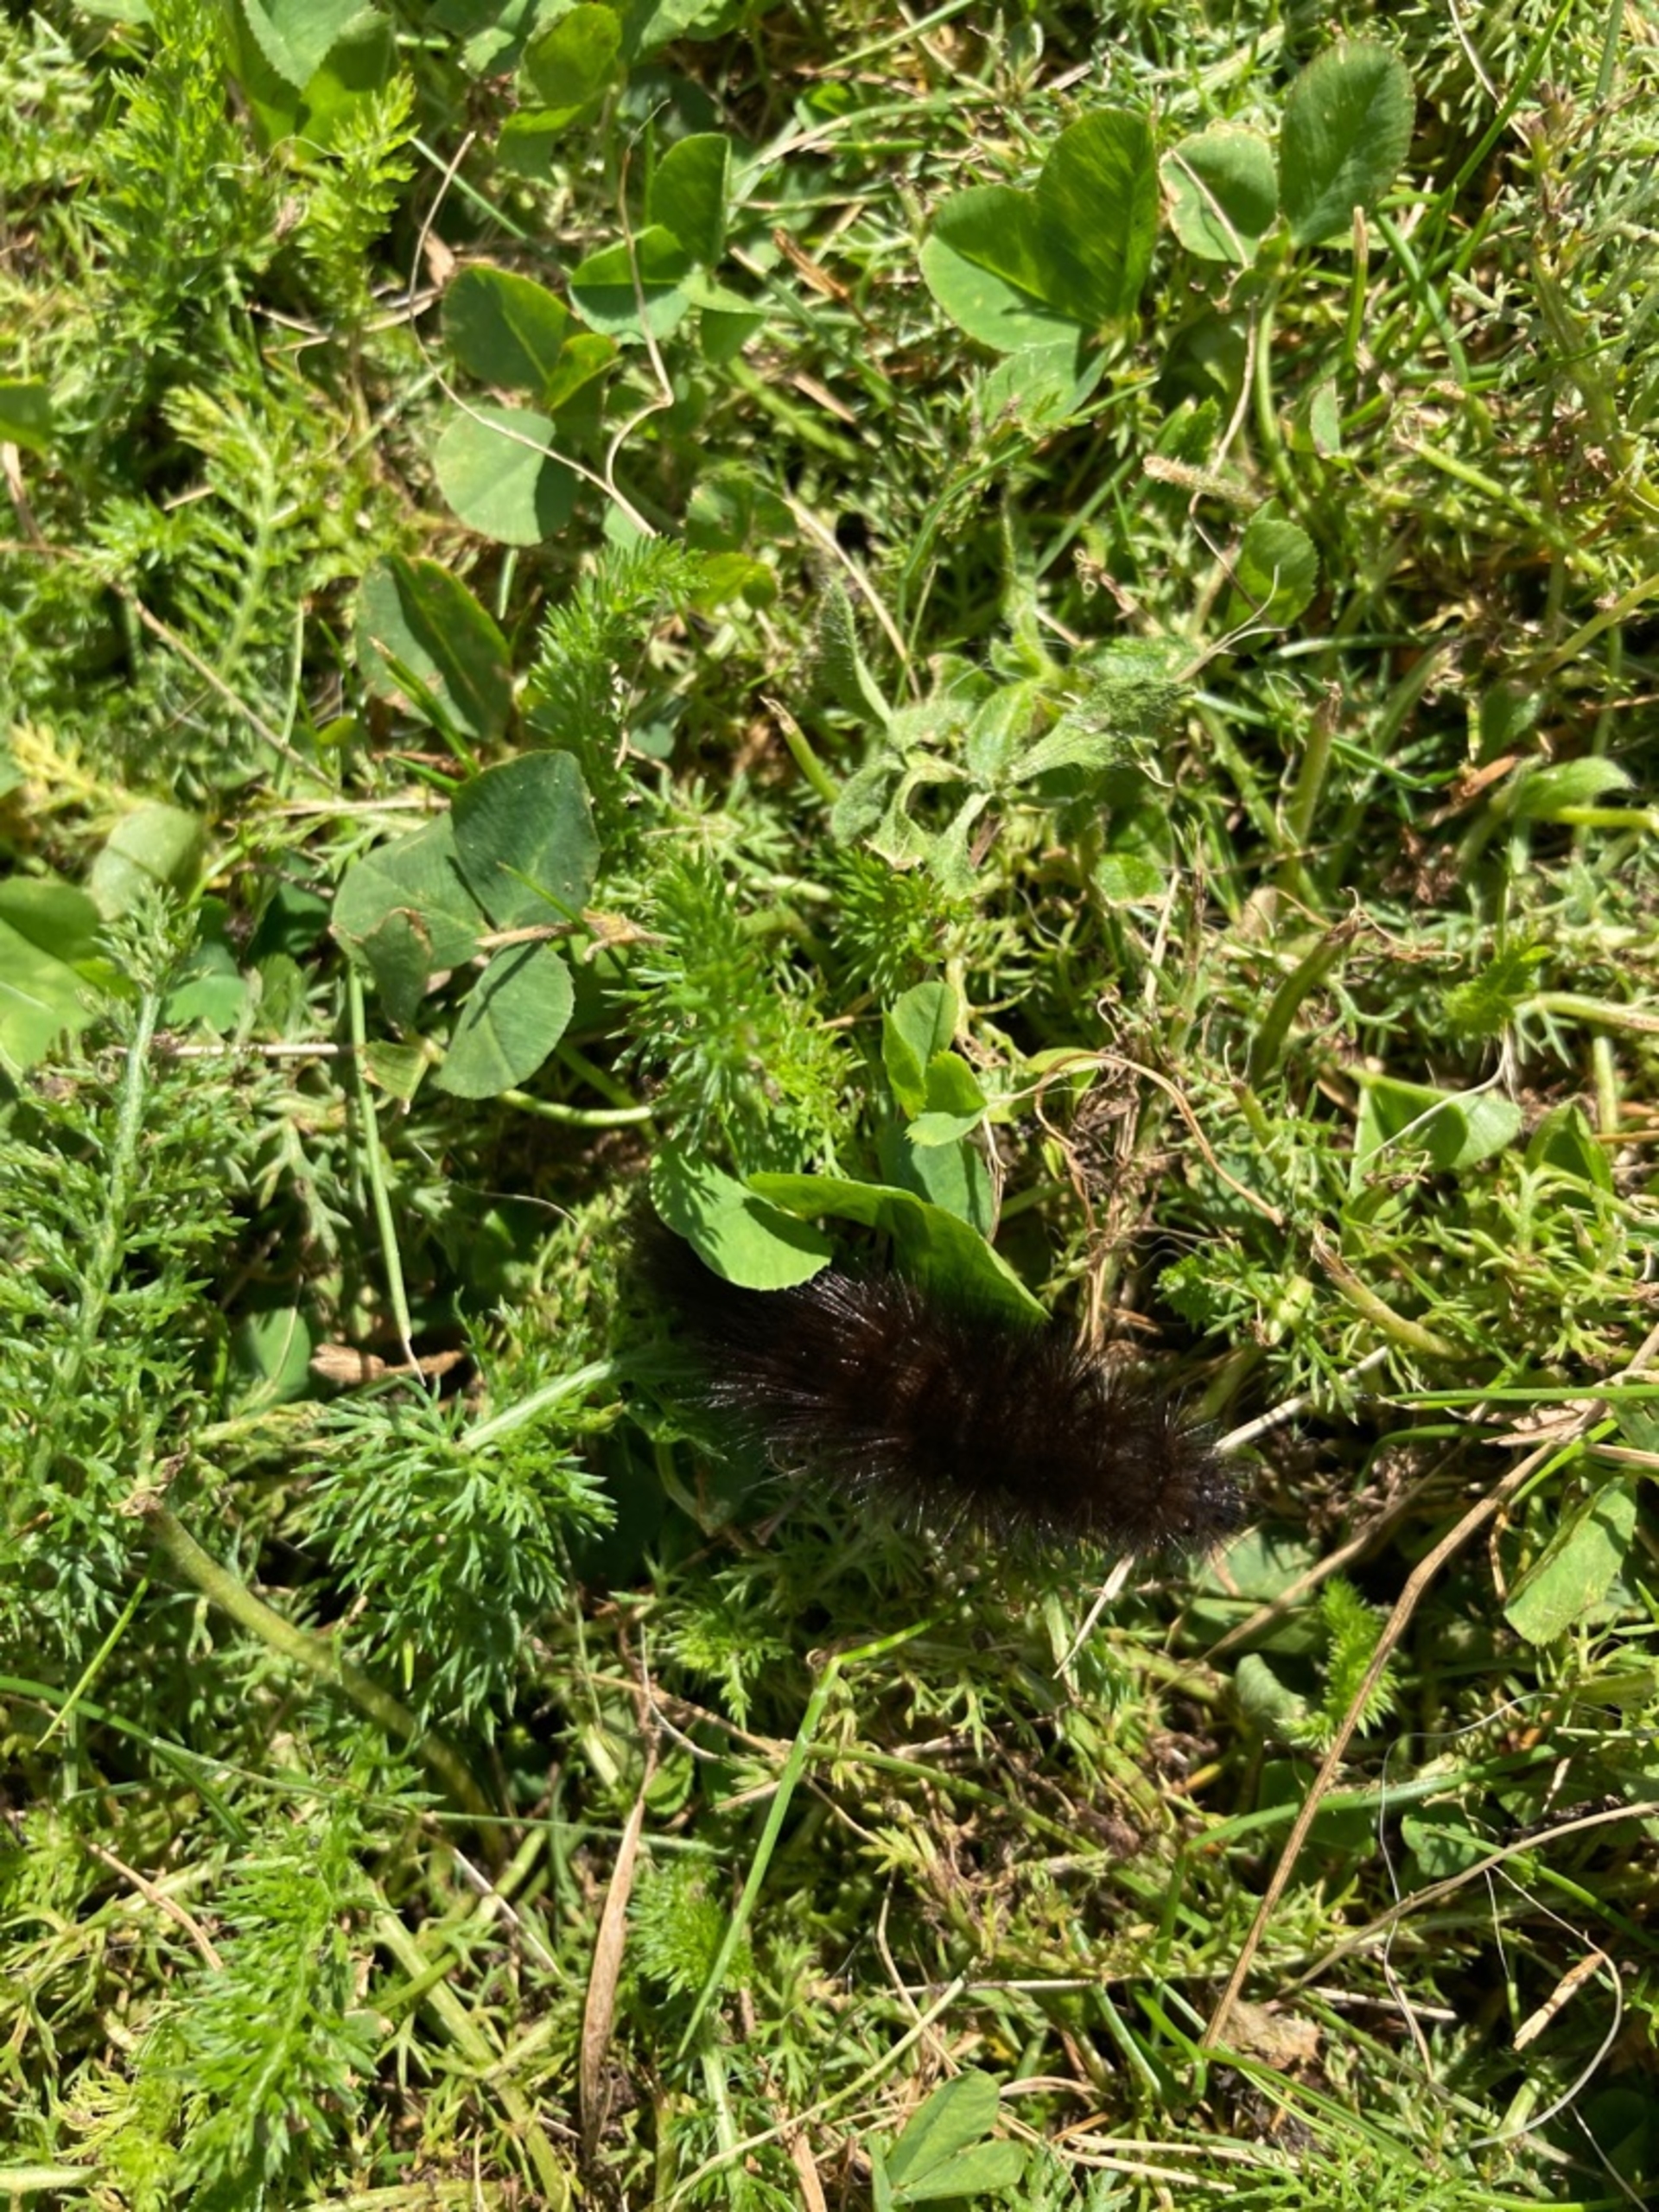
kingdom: Animalia
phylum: Arthropoda
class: Insecta
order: Lepidoptera
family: Erebidae
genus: Arctia
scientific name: Arctia caja
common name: Brun bjørn
